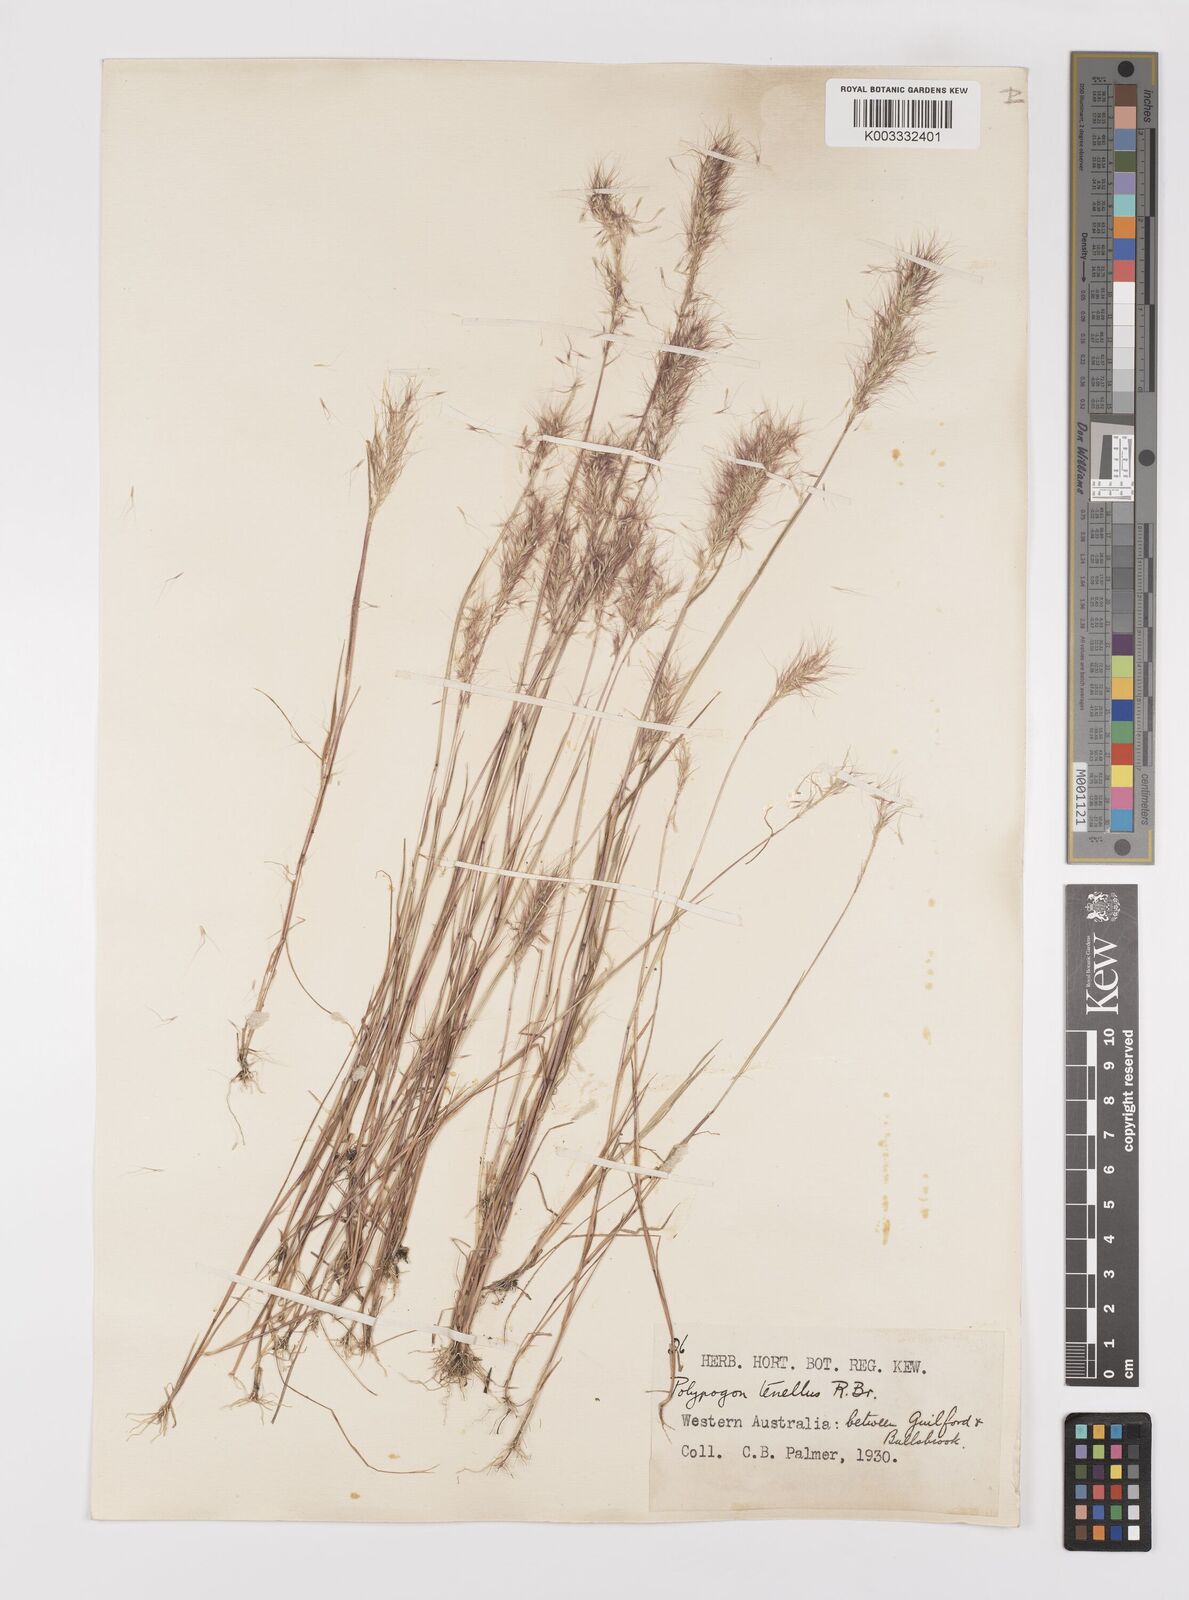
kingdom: Plantae
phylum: Tracheophyta
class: Liliopsida
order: Poales
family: Poaceae
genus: Polypogon
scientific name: Polypogon tenellus
